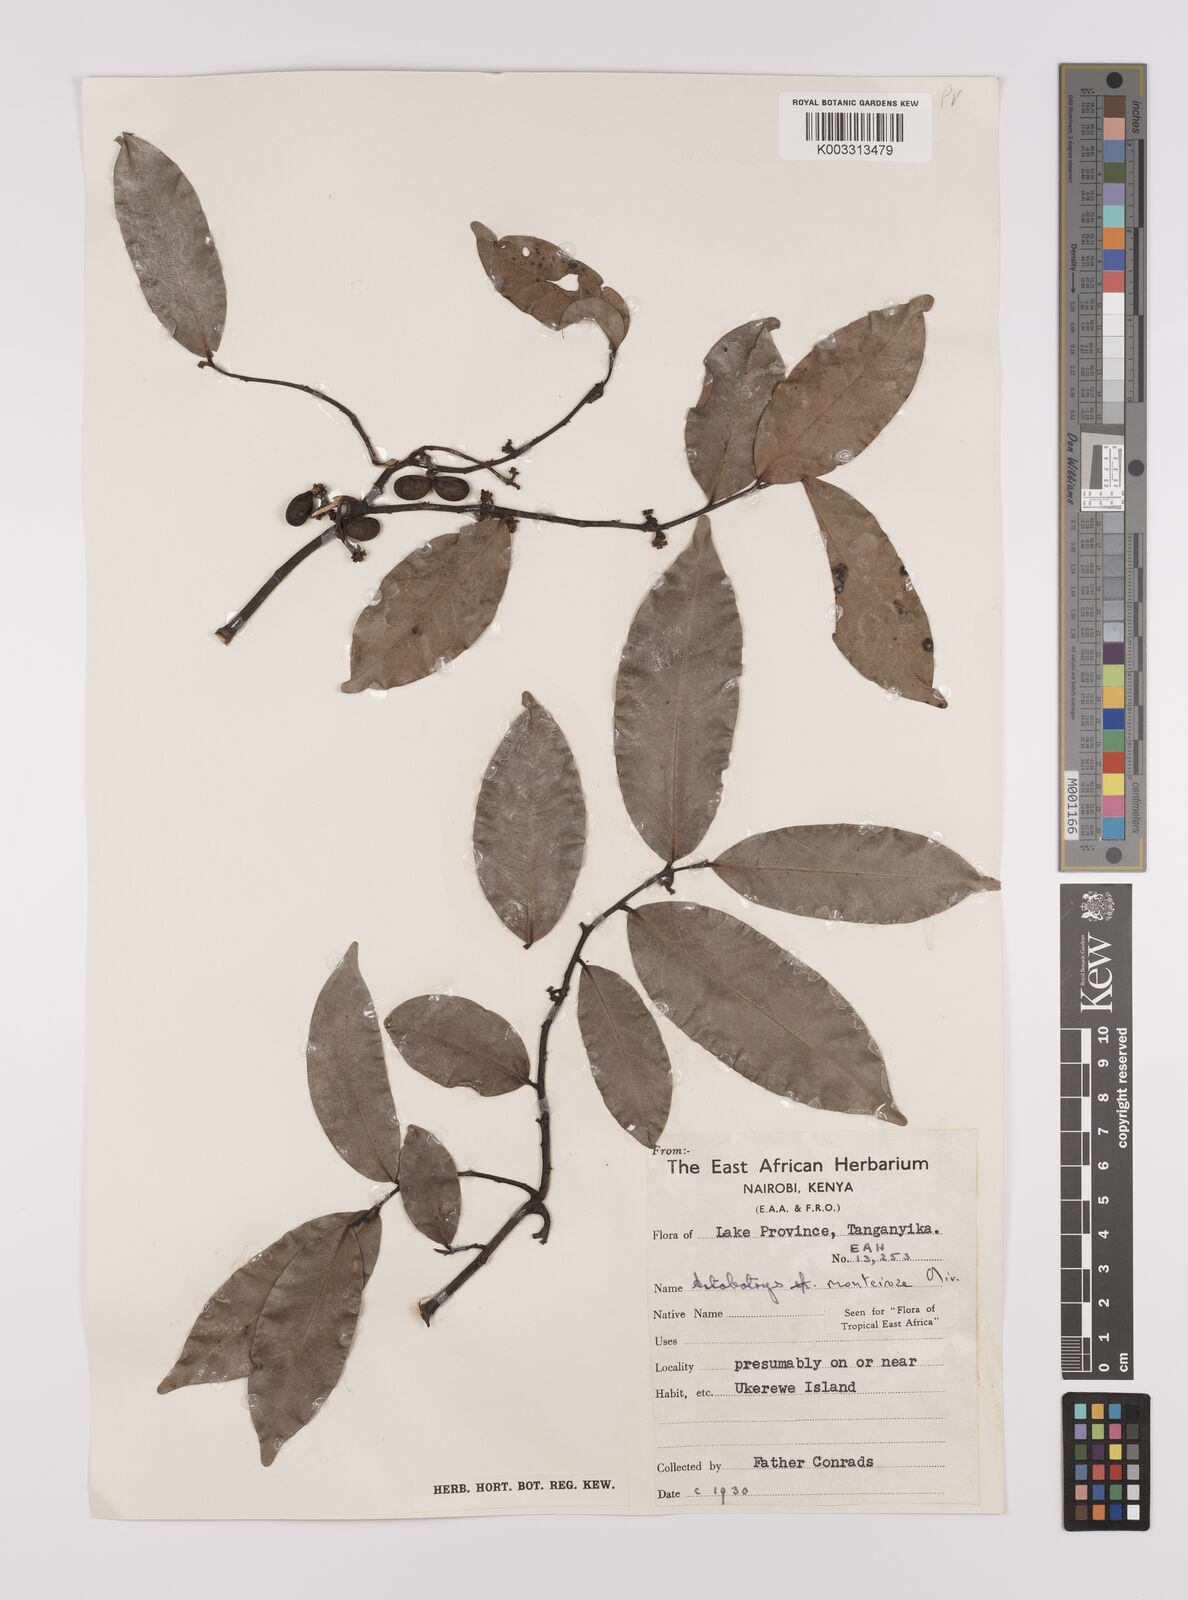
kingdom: Plantae
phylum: Tracheophyta
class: Magnoliopsida
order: Magnoliales
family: Annonaceae
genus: Artabotrys
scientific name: Artabotrys monteiroae
